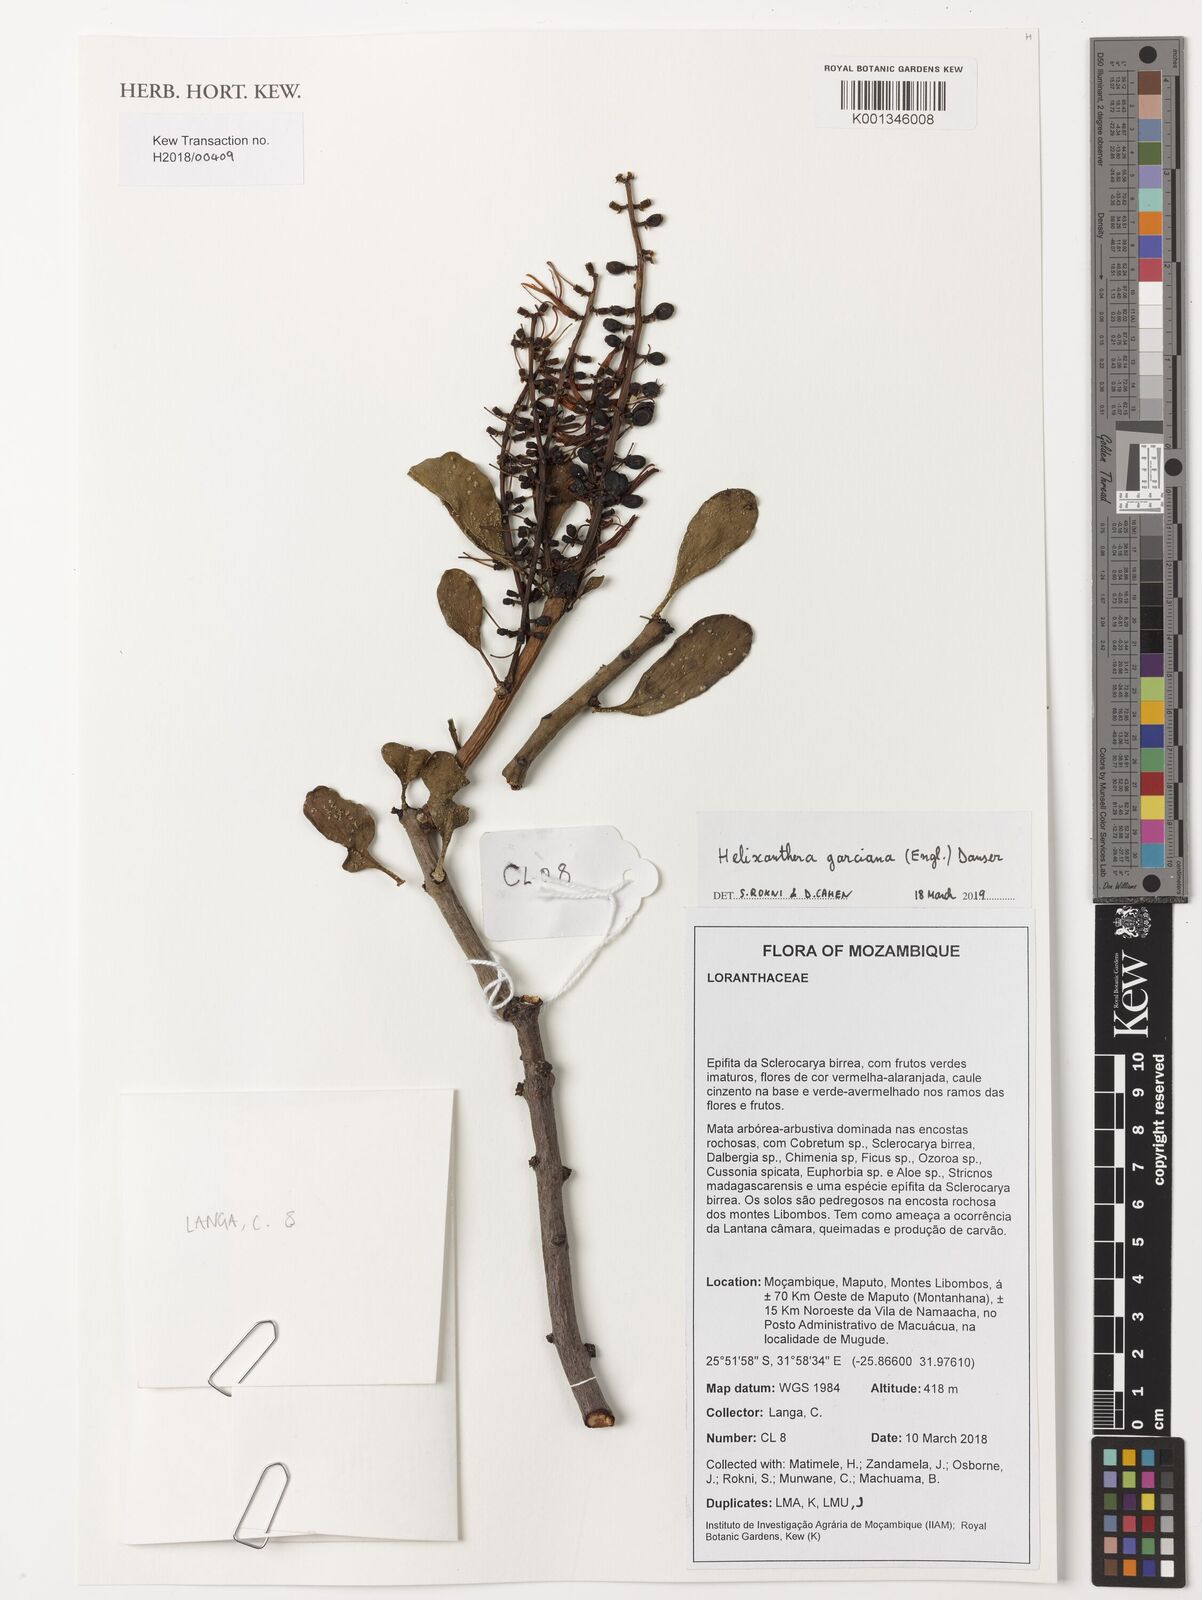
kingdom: Plantae
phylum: Tracheophyta
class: Magnoliopsida
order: Santalales
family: Loranthaceae
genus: Helixanthera
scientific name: Helixanthera garciana
